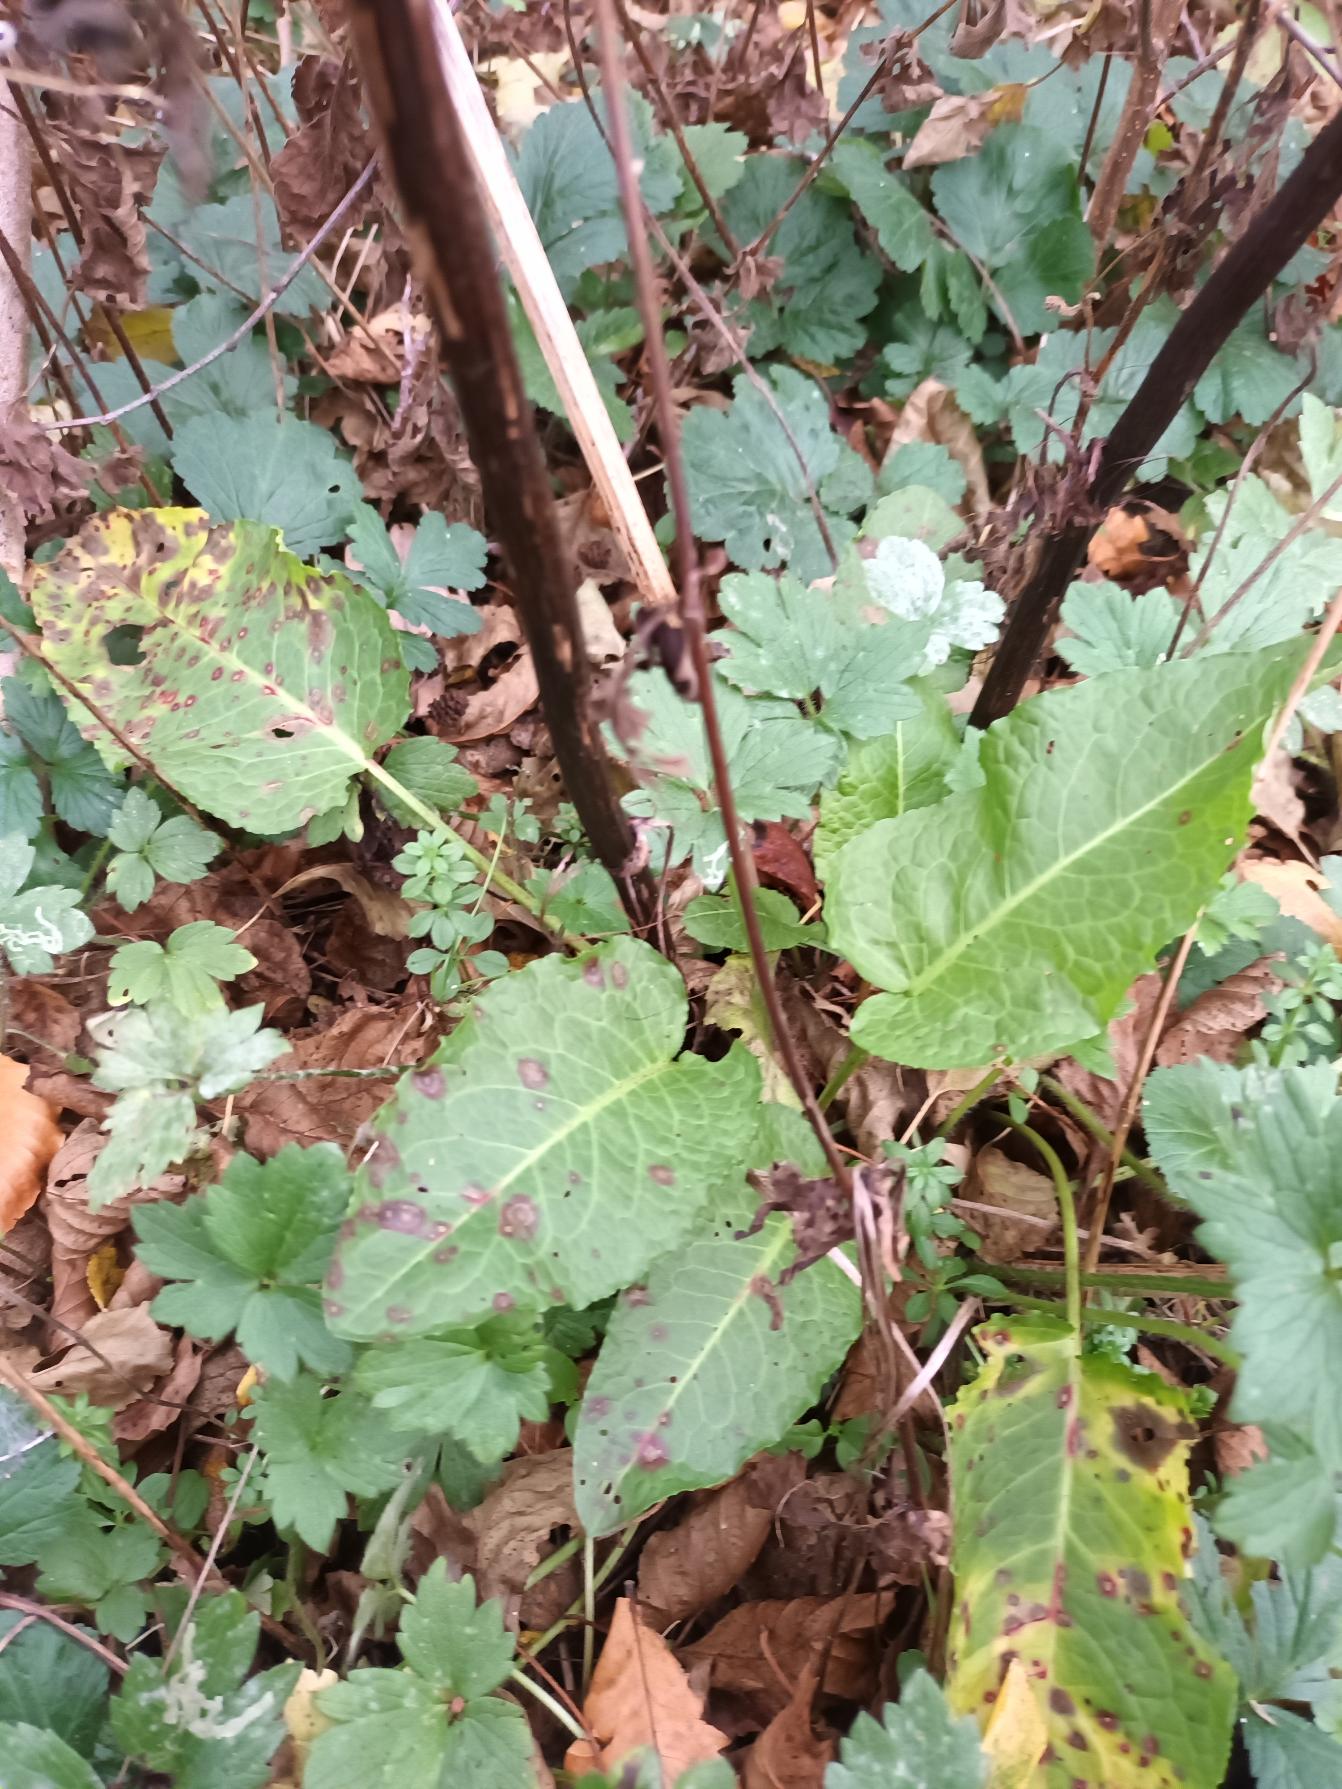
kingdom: Plantae
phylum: Tracheophyta
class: Magnoliopsida
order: Caryophyllales
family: Polygonaceae
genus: Rumex
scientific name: Rumex sanguineus
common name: Skov-skræppe
